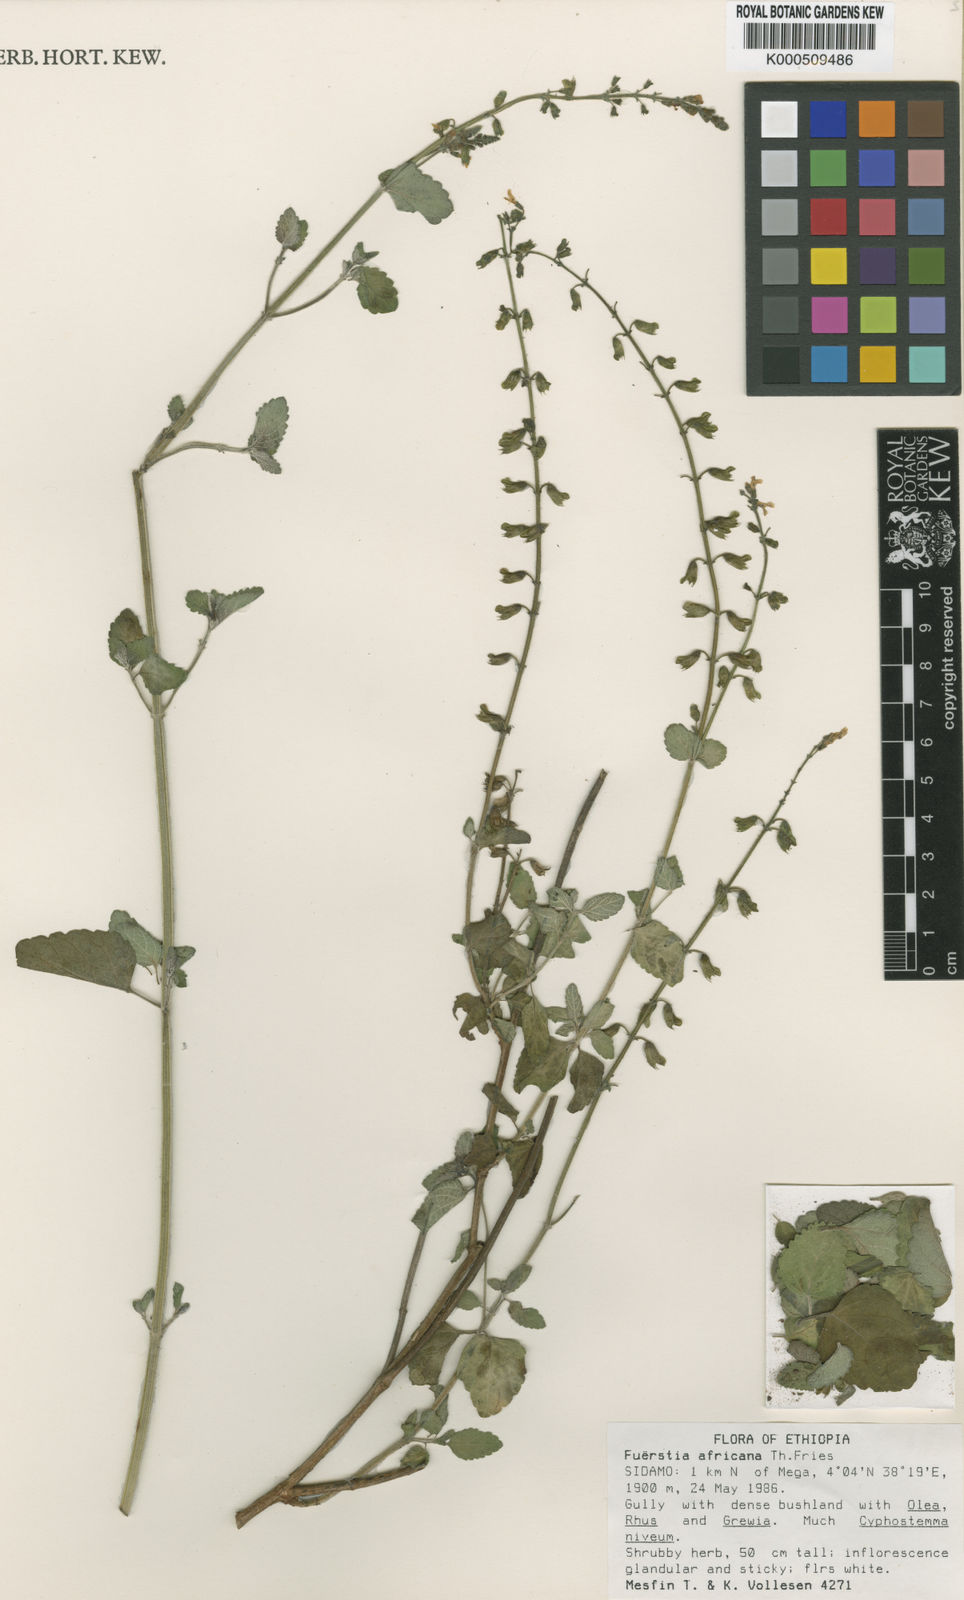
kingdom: Plantae
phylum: Tracheophyta
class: Magnoliopsida
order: Lamiales
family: Lamiaceae
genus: Fuerstia
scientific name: Fuerstia africana
